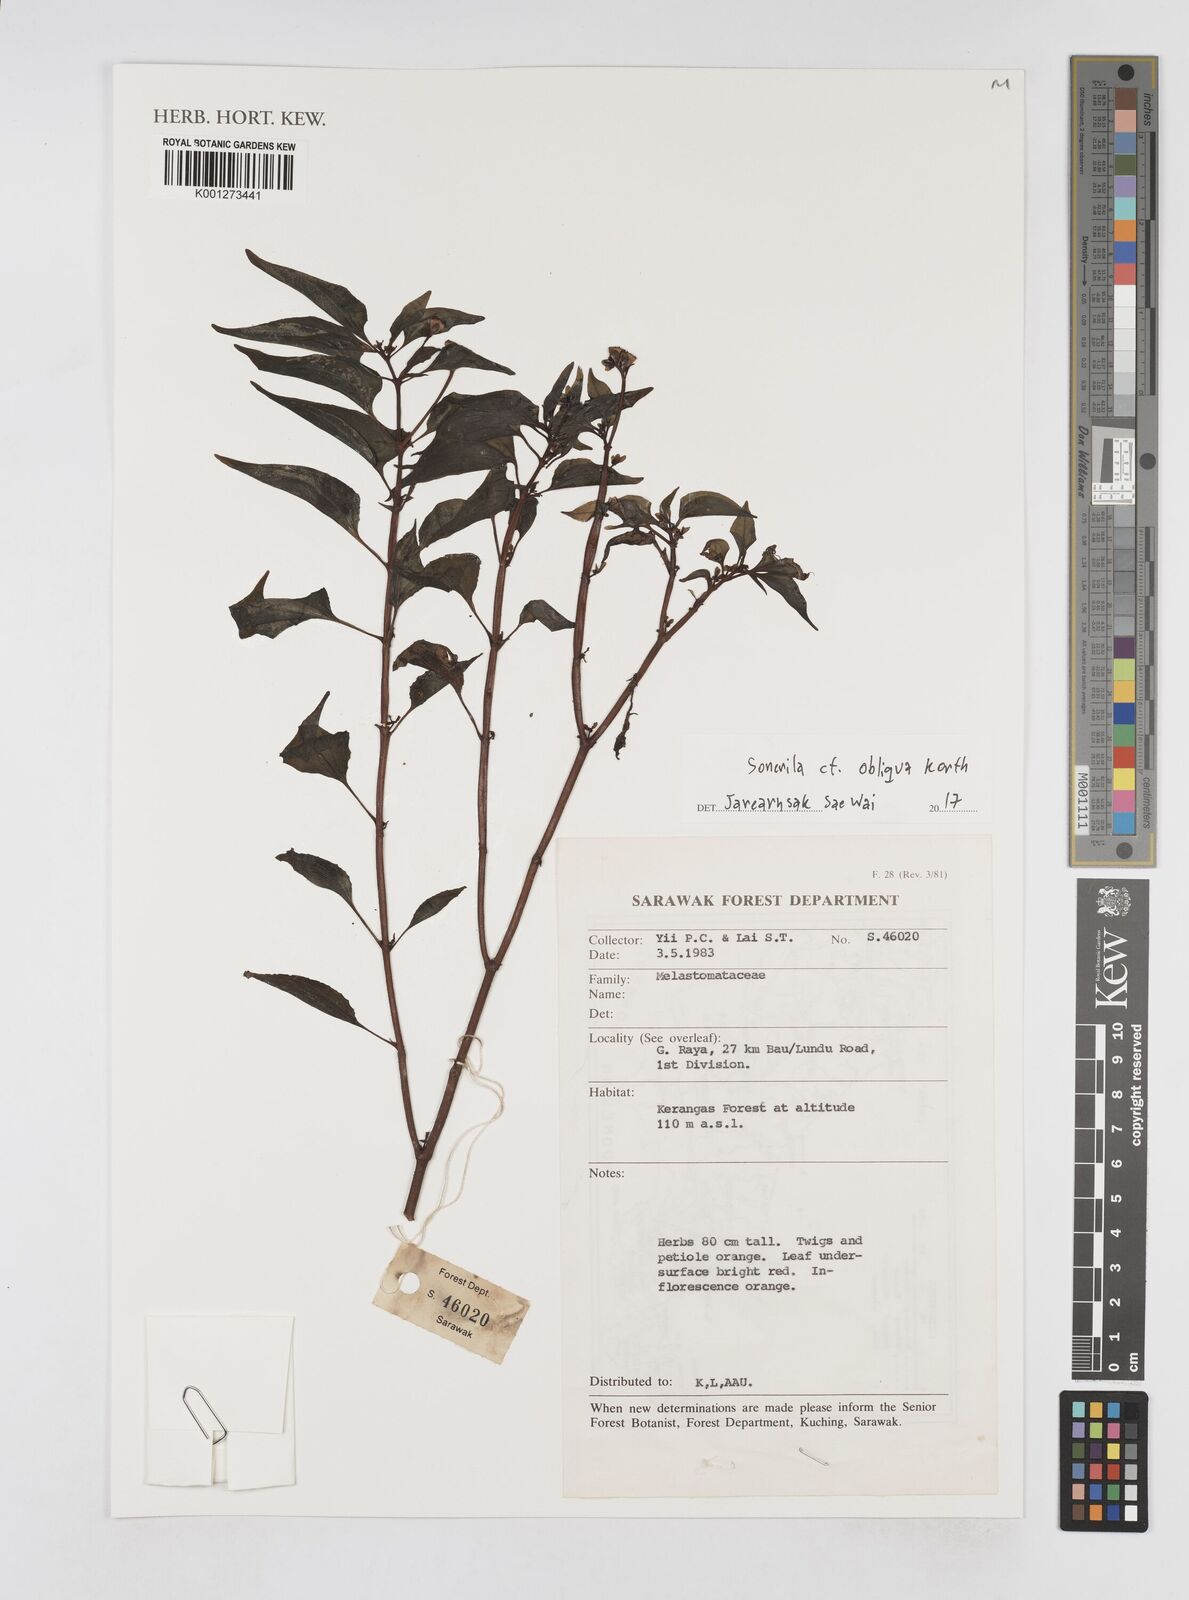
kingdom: Plantae
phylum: Tracheophyta
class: Magnoliopsida
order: Myrtales
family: Melastomataceae
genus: Sonerila
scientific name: Sonerila obliqua
